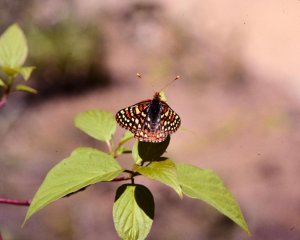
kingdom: Animalia
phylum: Arthropoda
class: Insecta
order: Lepidoptera
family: Nymphalidae
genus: Occidryas
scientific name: Occidryas anicia
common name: Anicia Checkerspot
